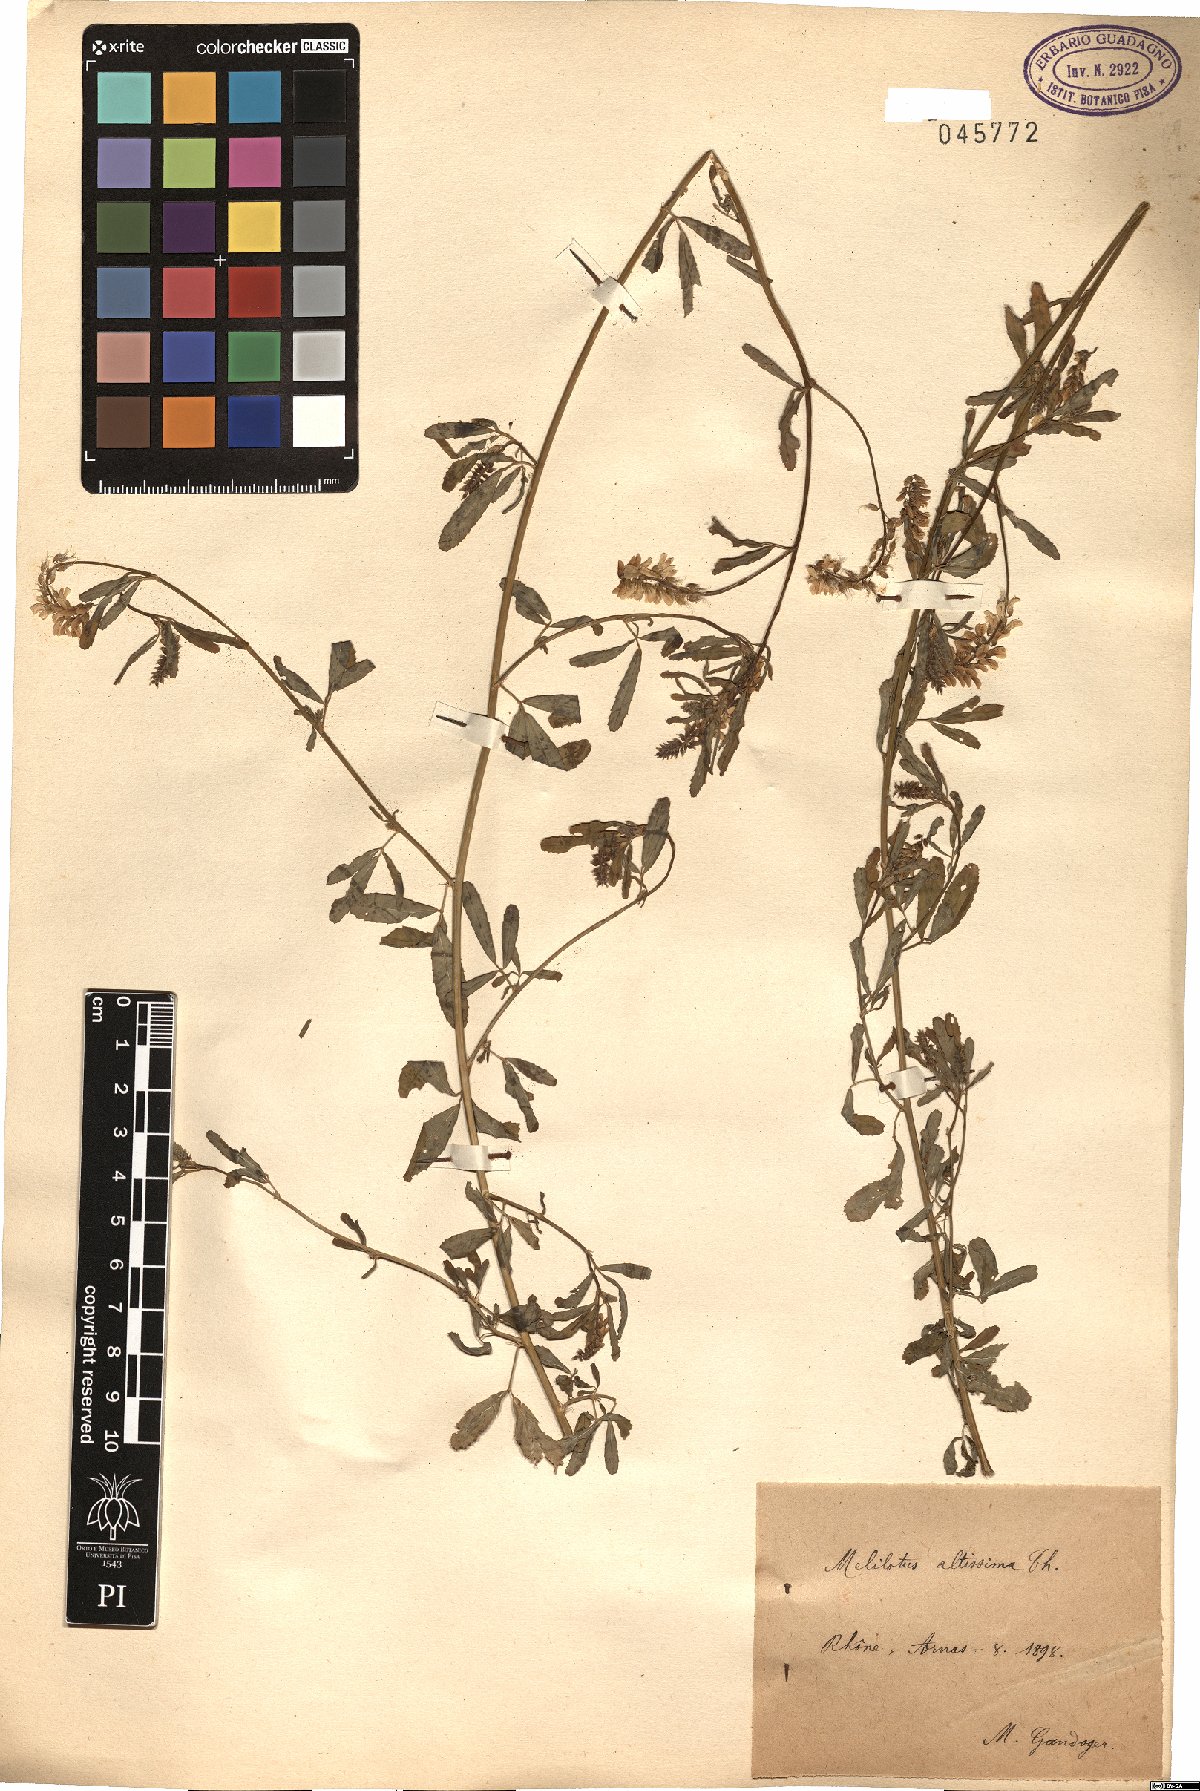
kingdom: Plantae
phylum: Tracheophyta
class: Magnoliopsida
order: Fabales
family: Fabaceae
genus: Melilotus
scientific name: Melilotus altissimus
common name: Tall melilot
